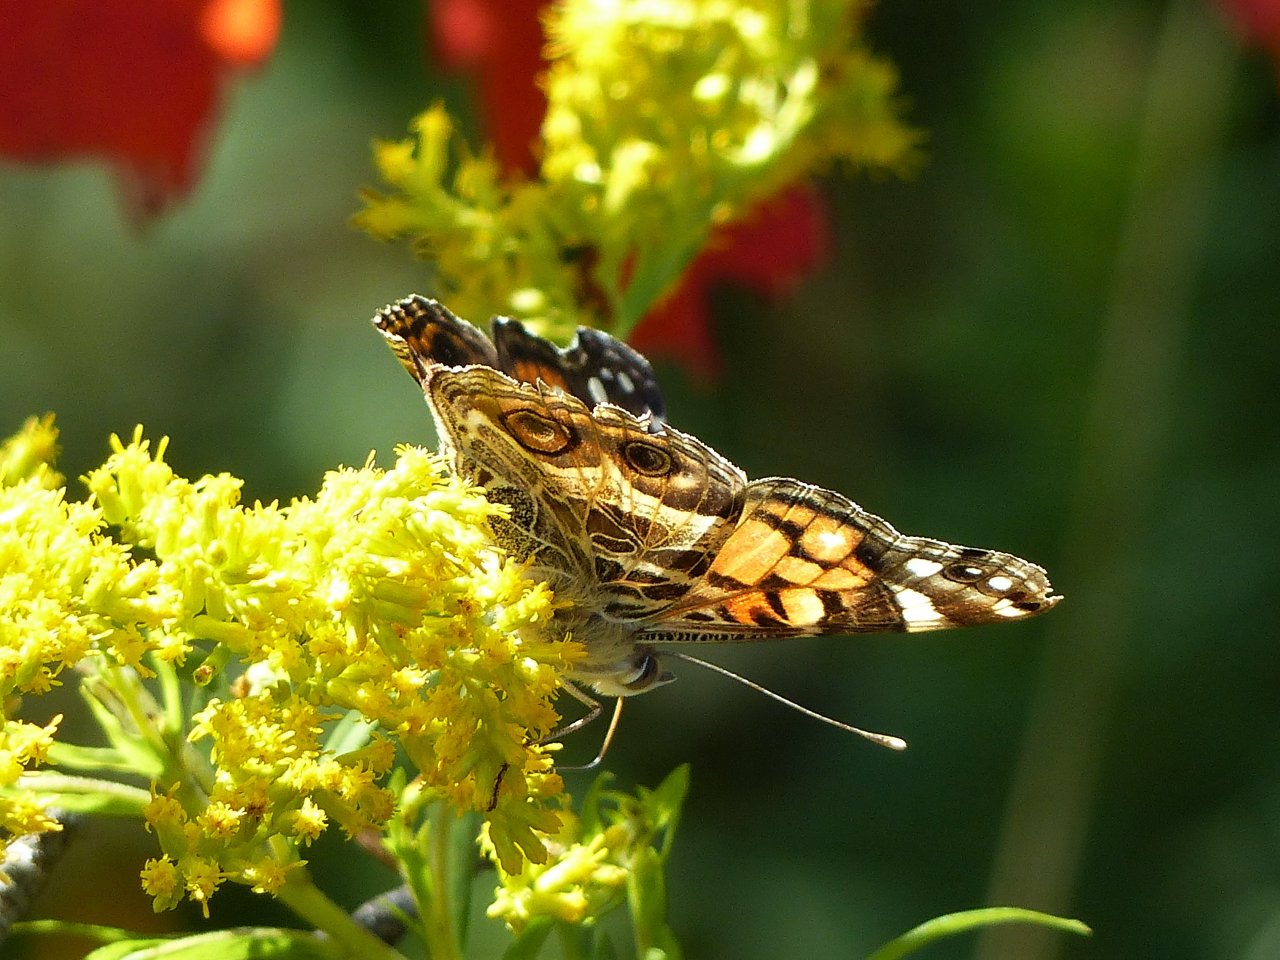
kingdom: Animalia
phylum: Arthropoda
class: Insecta
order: Lepidoptera
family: Nymphalidae
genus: Vanessa
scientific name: Vanessa virginiensis
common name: American Lady
